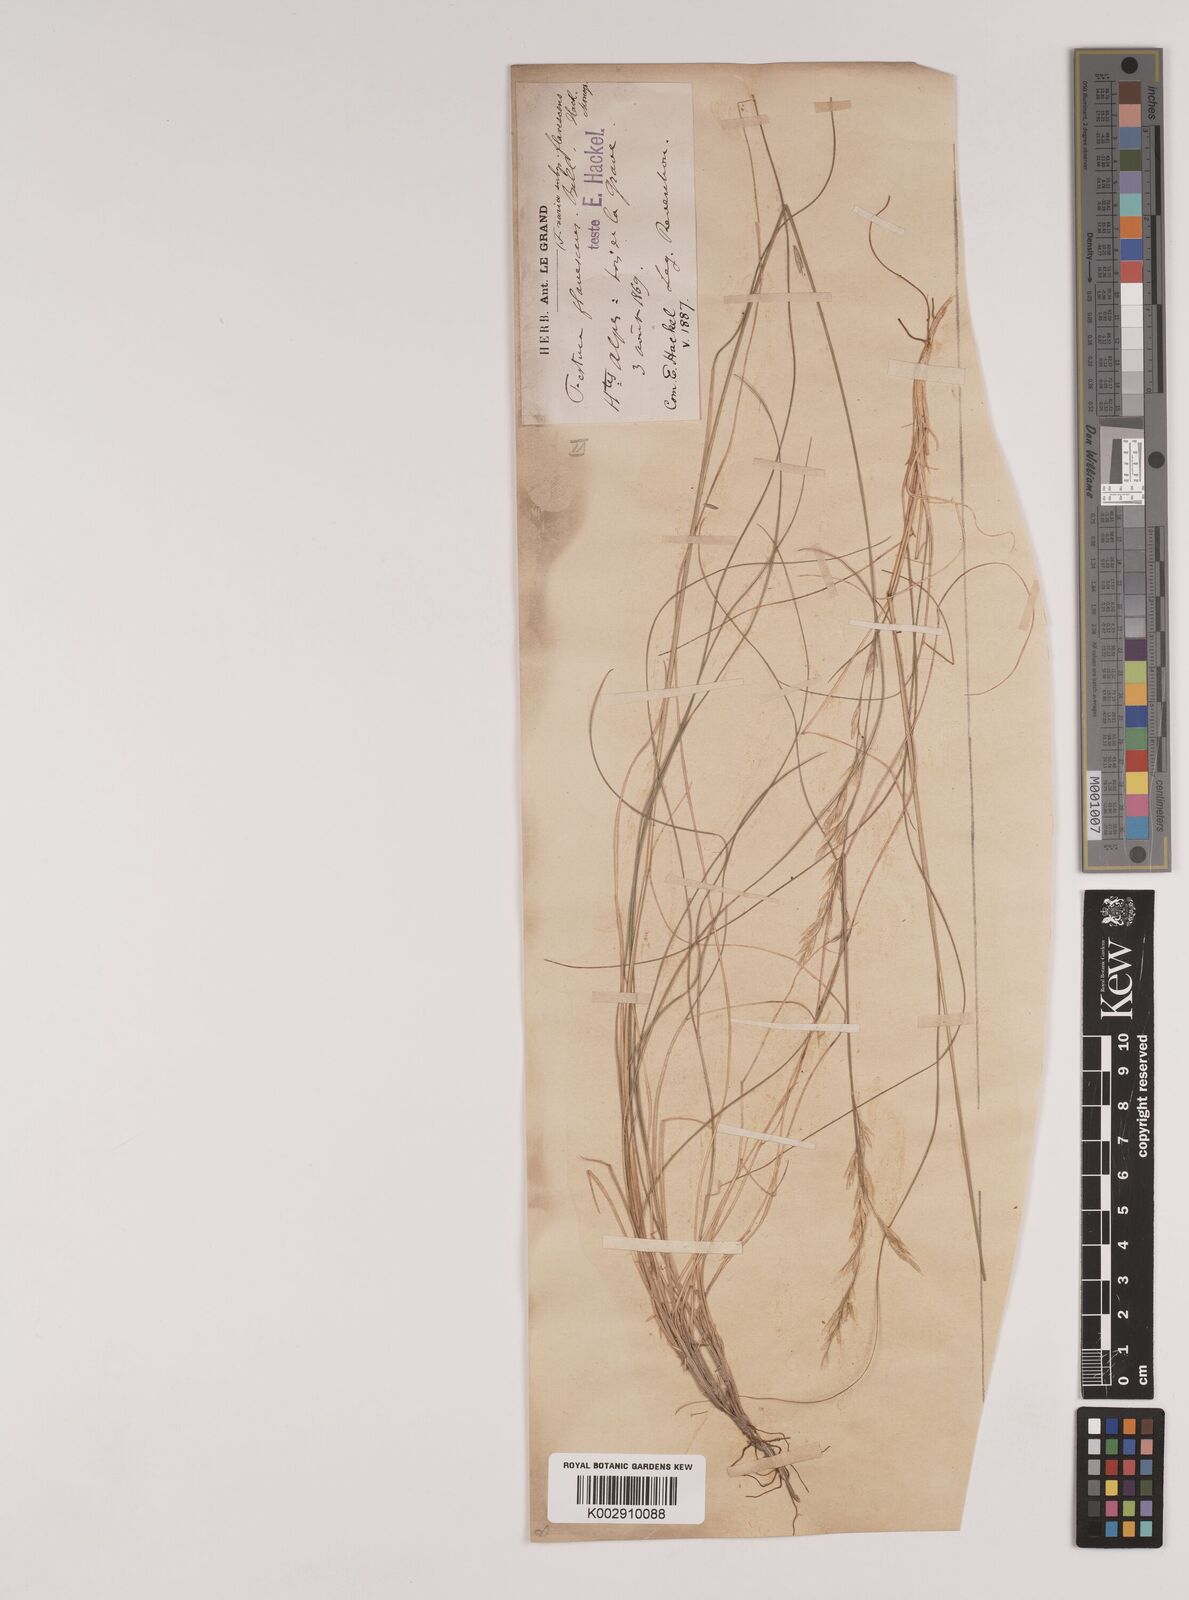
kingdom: Plantae
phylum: Tracheophyta
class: Liliopsida
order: Poales
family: Poaceae
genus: Festuca
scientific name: Festuca flavescens
